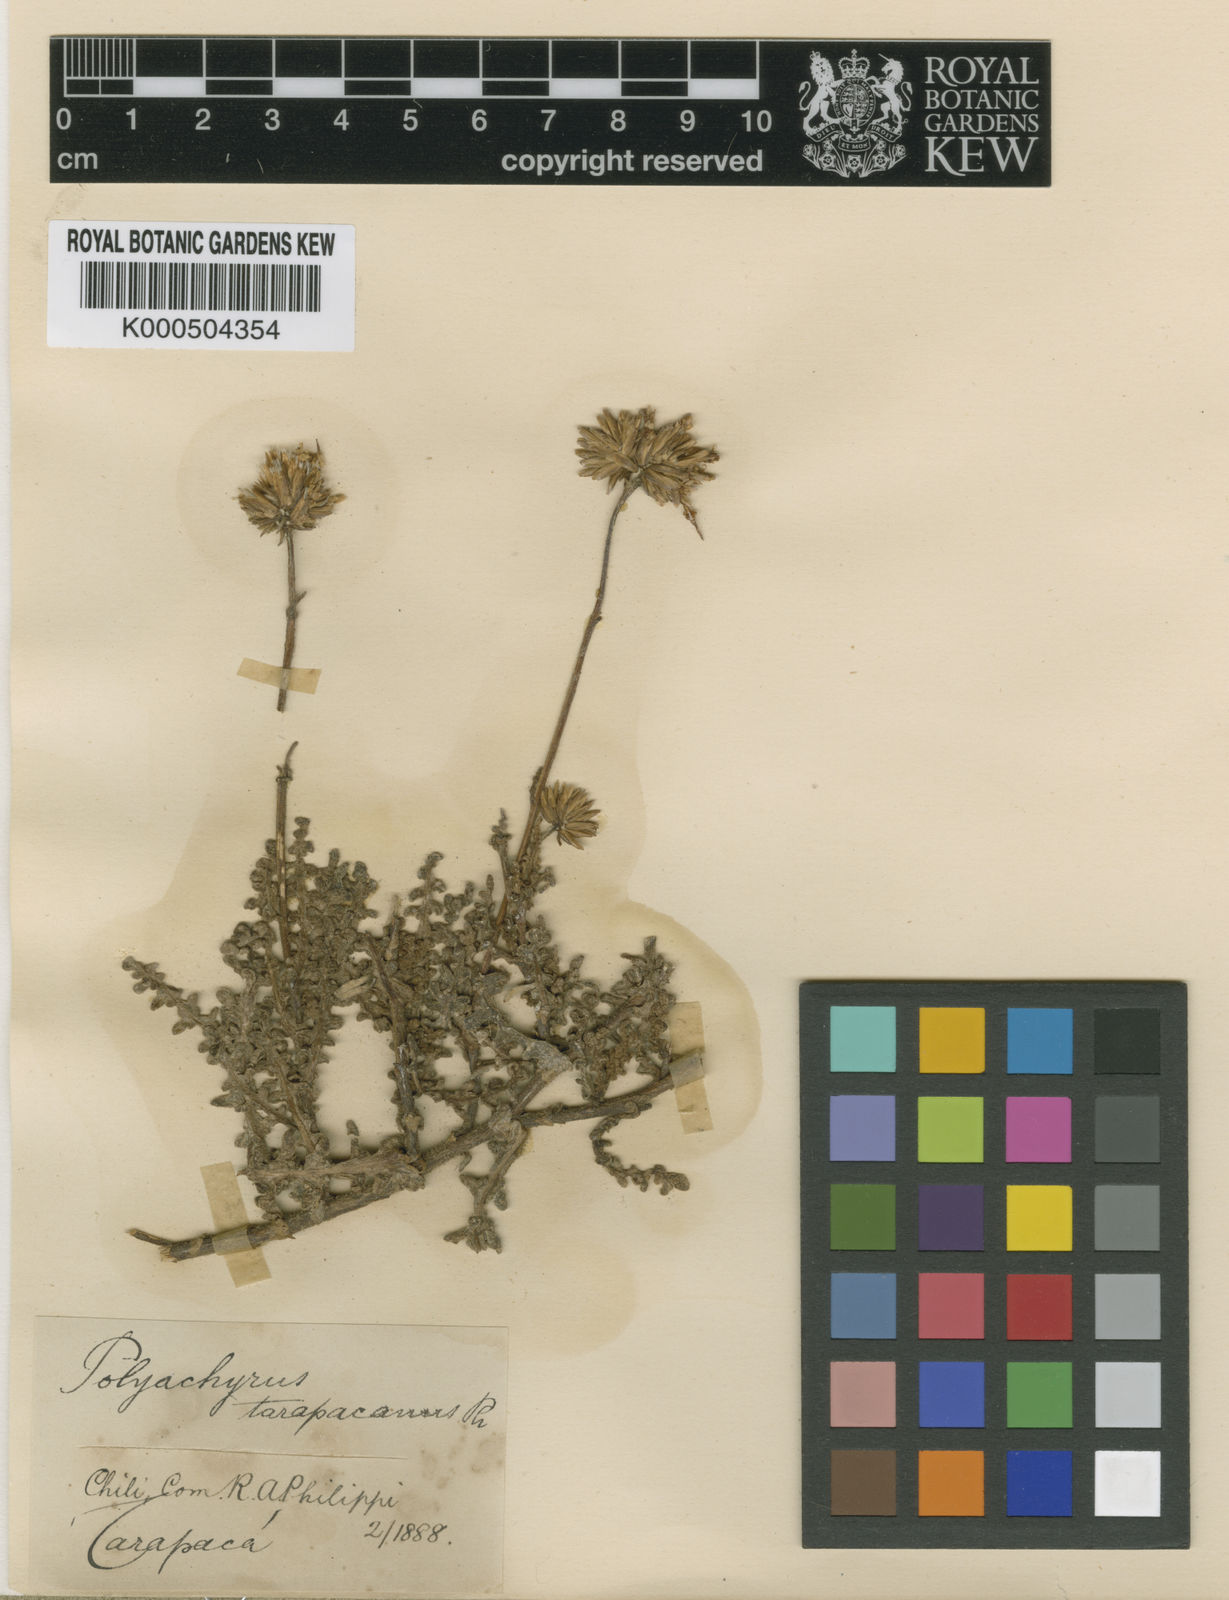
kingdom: Plantae
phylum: Tracheophyta
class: Magnoliopsida
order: Asterales
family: Asteraceae
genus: Polyachyrus
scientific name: Polyachyrus sphaerocephalus
